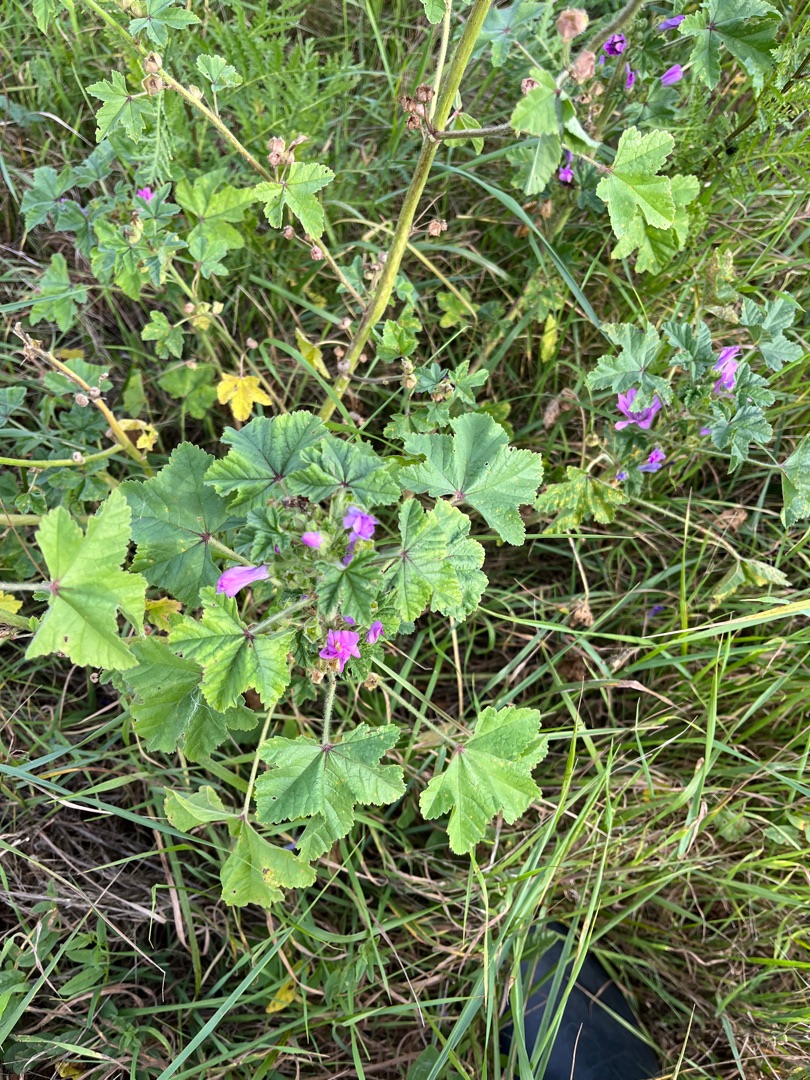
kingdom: Plantae
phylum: Tracheophyta
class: Magnoliopsida
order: Malvales
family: Malvaceae
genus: Malva
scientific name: Malva sylvestris
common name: Almindelig katost
